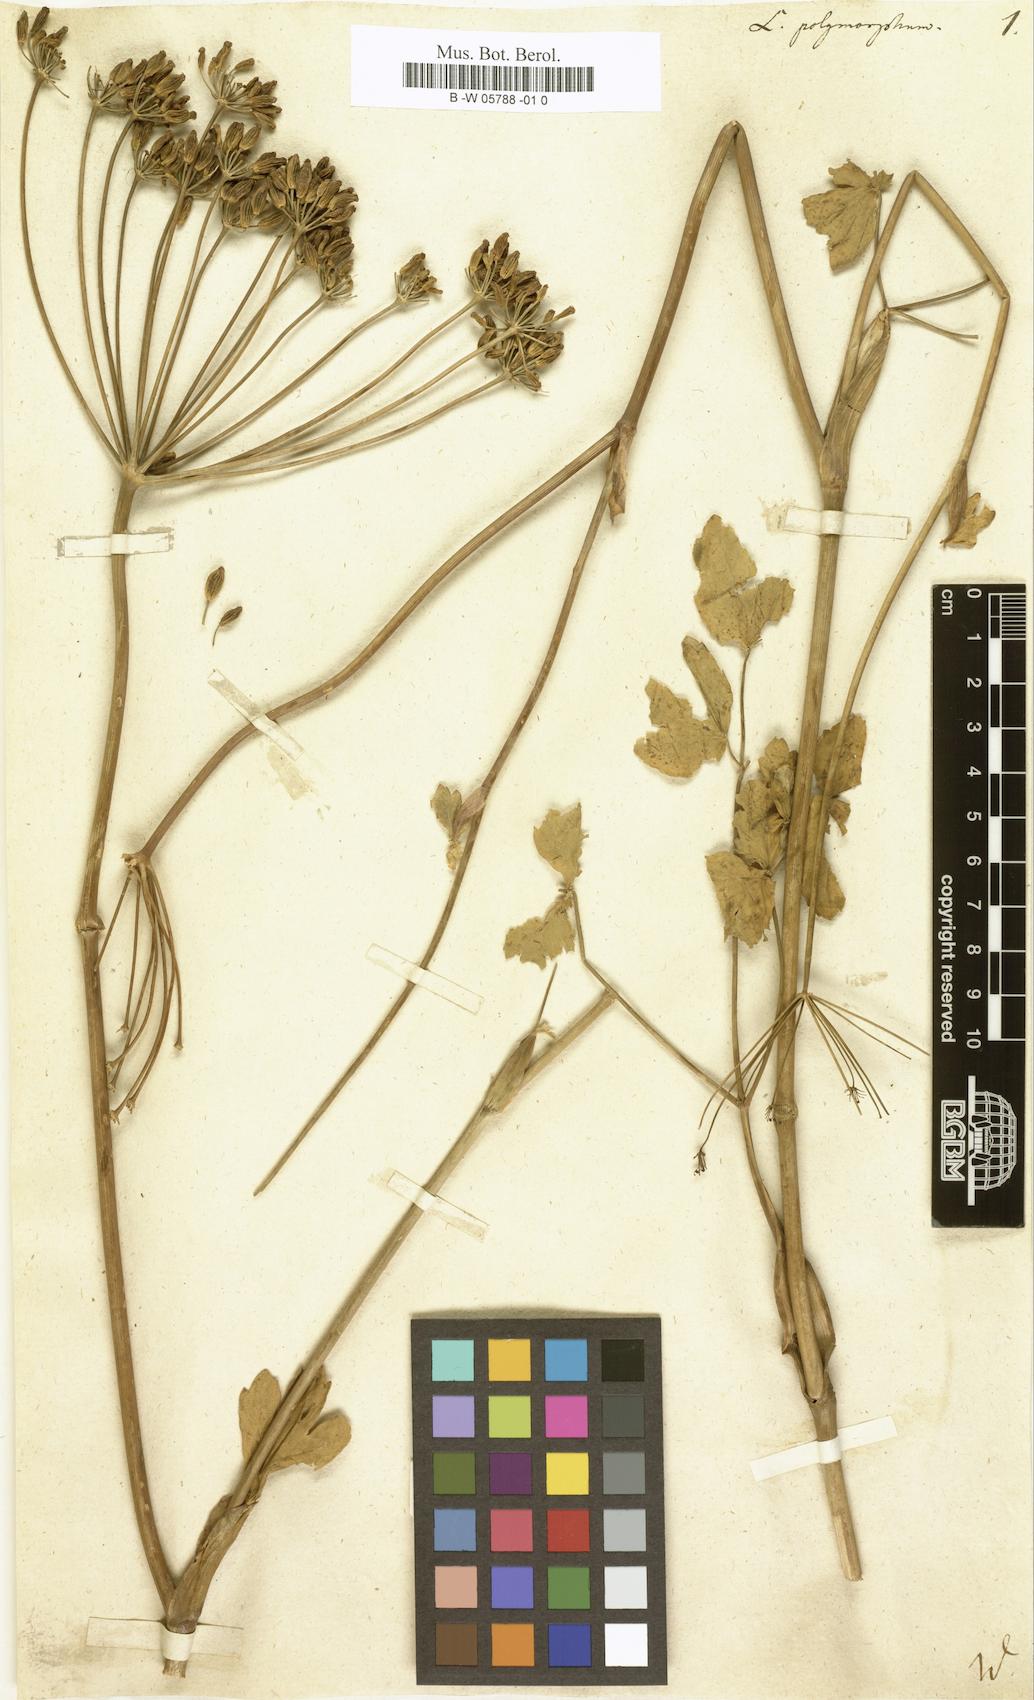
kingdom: Plantae
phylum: Tracheophyta
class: Magnoliopsida
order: Apiales
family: Apiaceae
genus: Laserpitium
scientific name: Laserpitium
